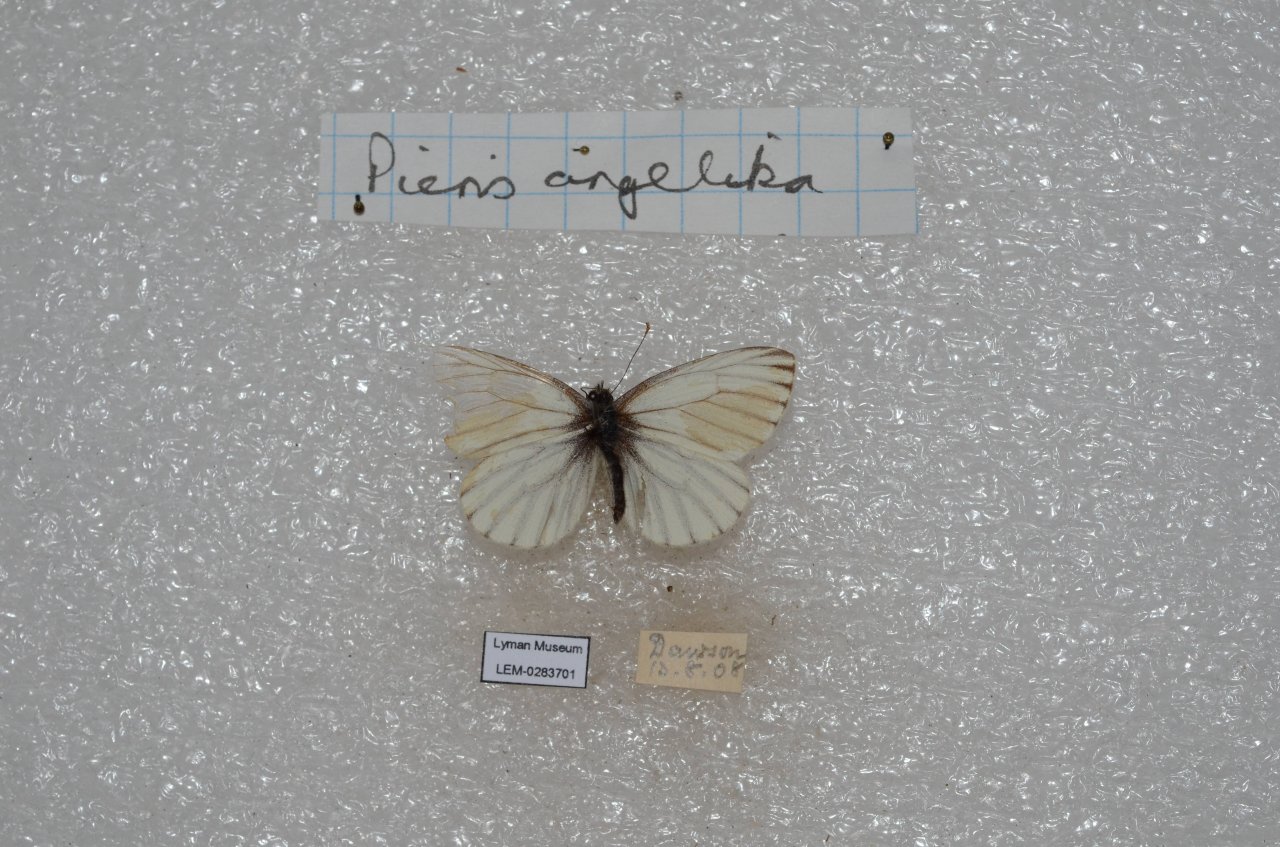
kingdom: Animalia
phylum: Arthropoda
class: Insecta
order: Lepidoptera
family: Pieridae
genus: Pieris
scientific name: Pieris angelika
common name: Arctic White
